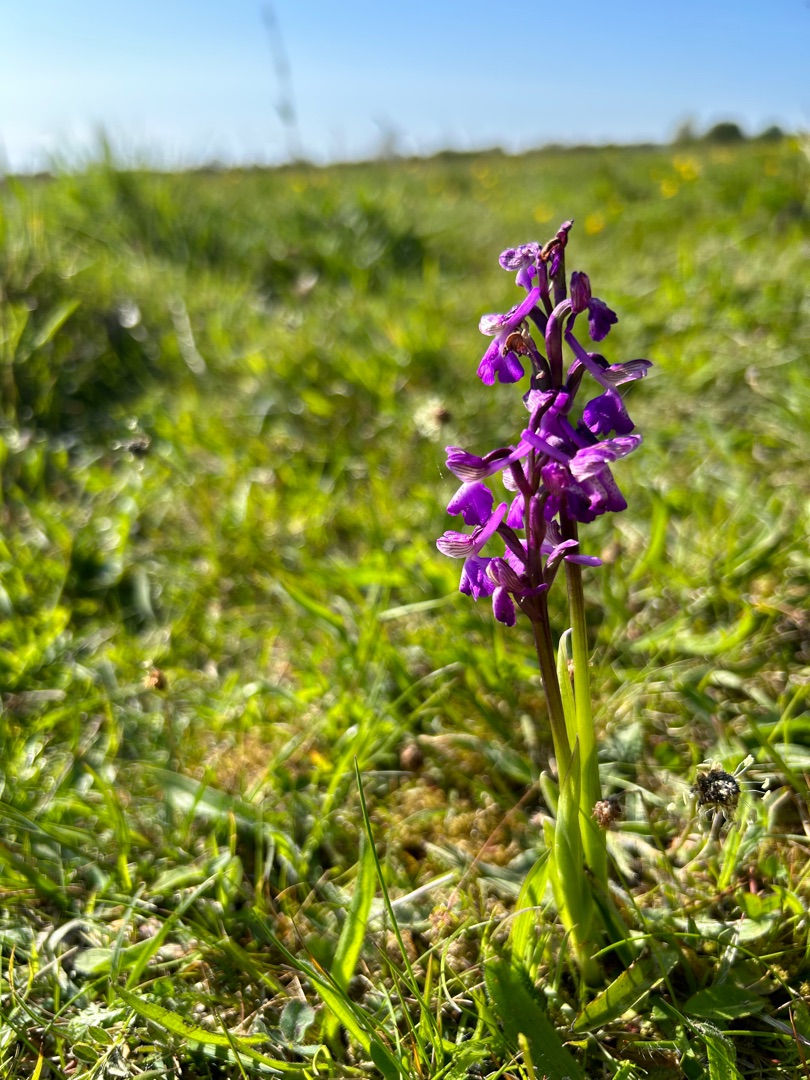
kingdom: Plantae
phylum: Tracheophyta
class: Liliopsida
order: Asparagales
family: Orchidaceae
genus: Anacamptis
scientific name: Anacamptis morio
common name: Salepgøgeurt
